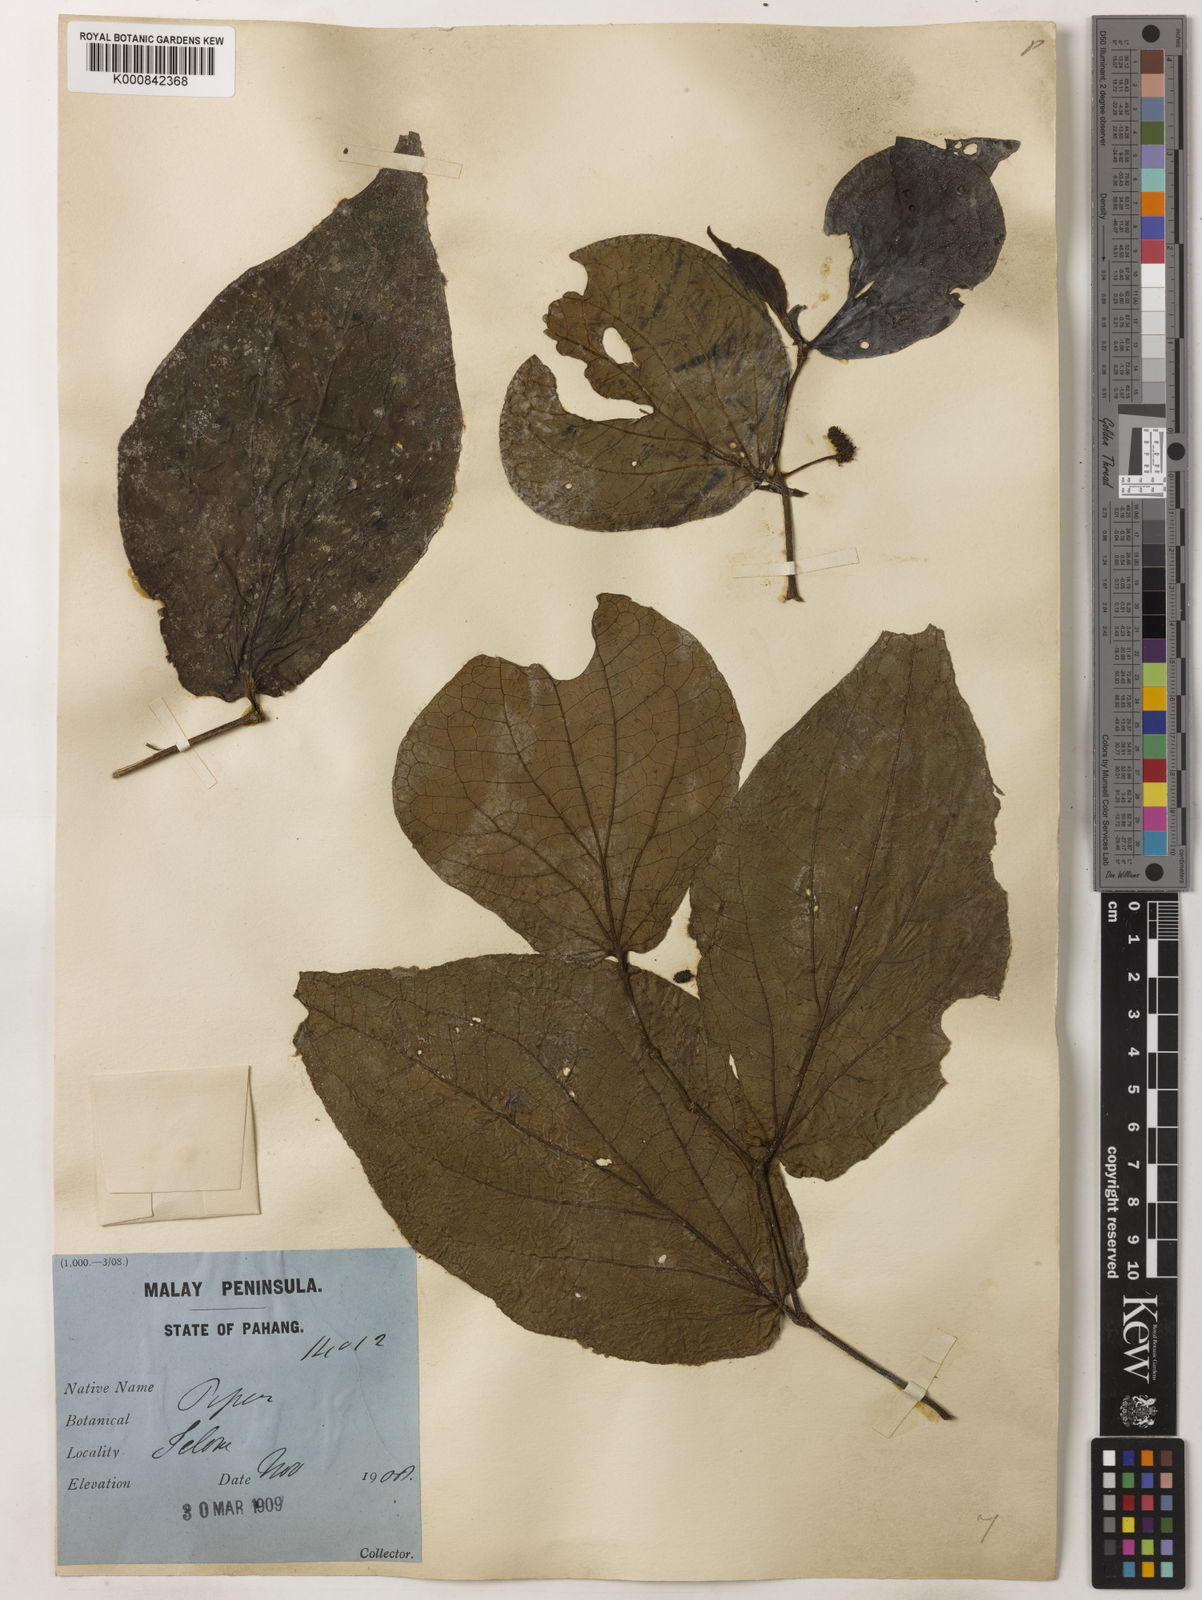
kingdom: Plantae
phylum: Tracheophyta
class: Magnoliopsida
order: Piperales
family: Piperaceae
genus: Piper
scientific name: Piper rostratum
